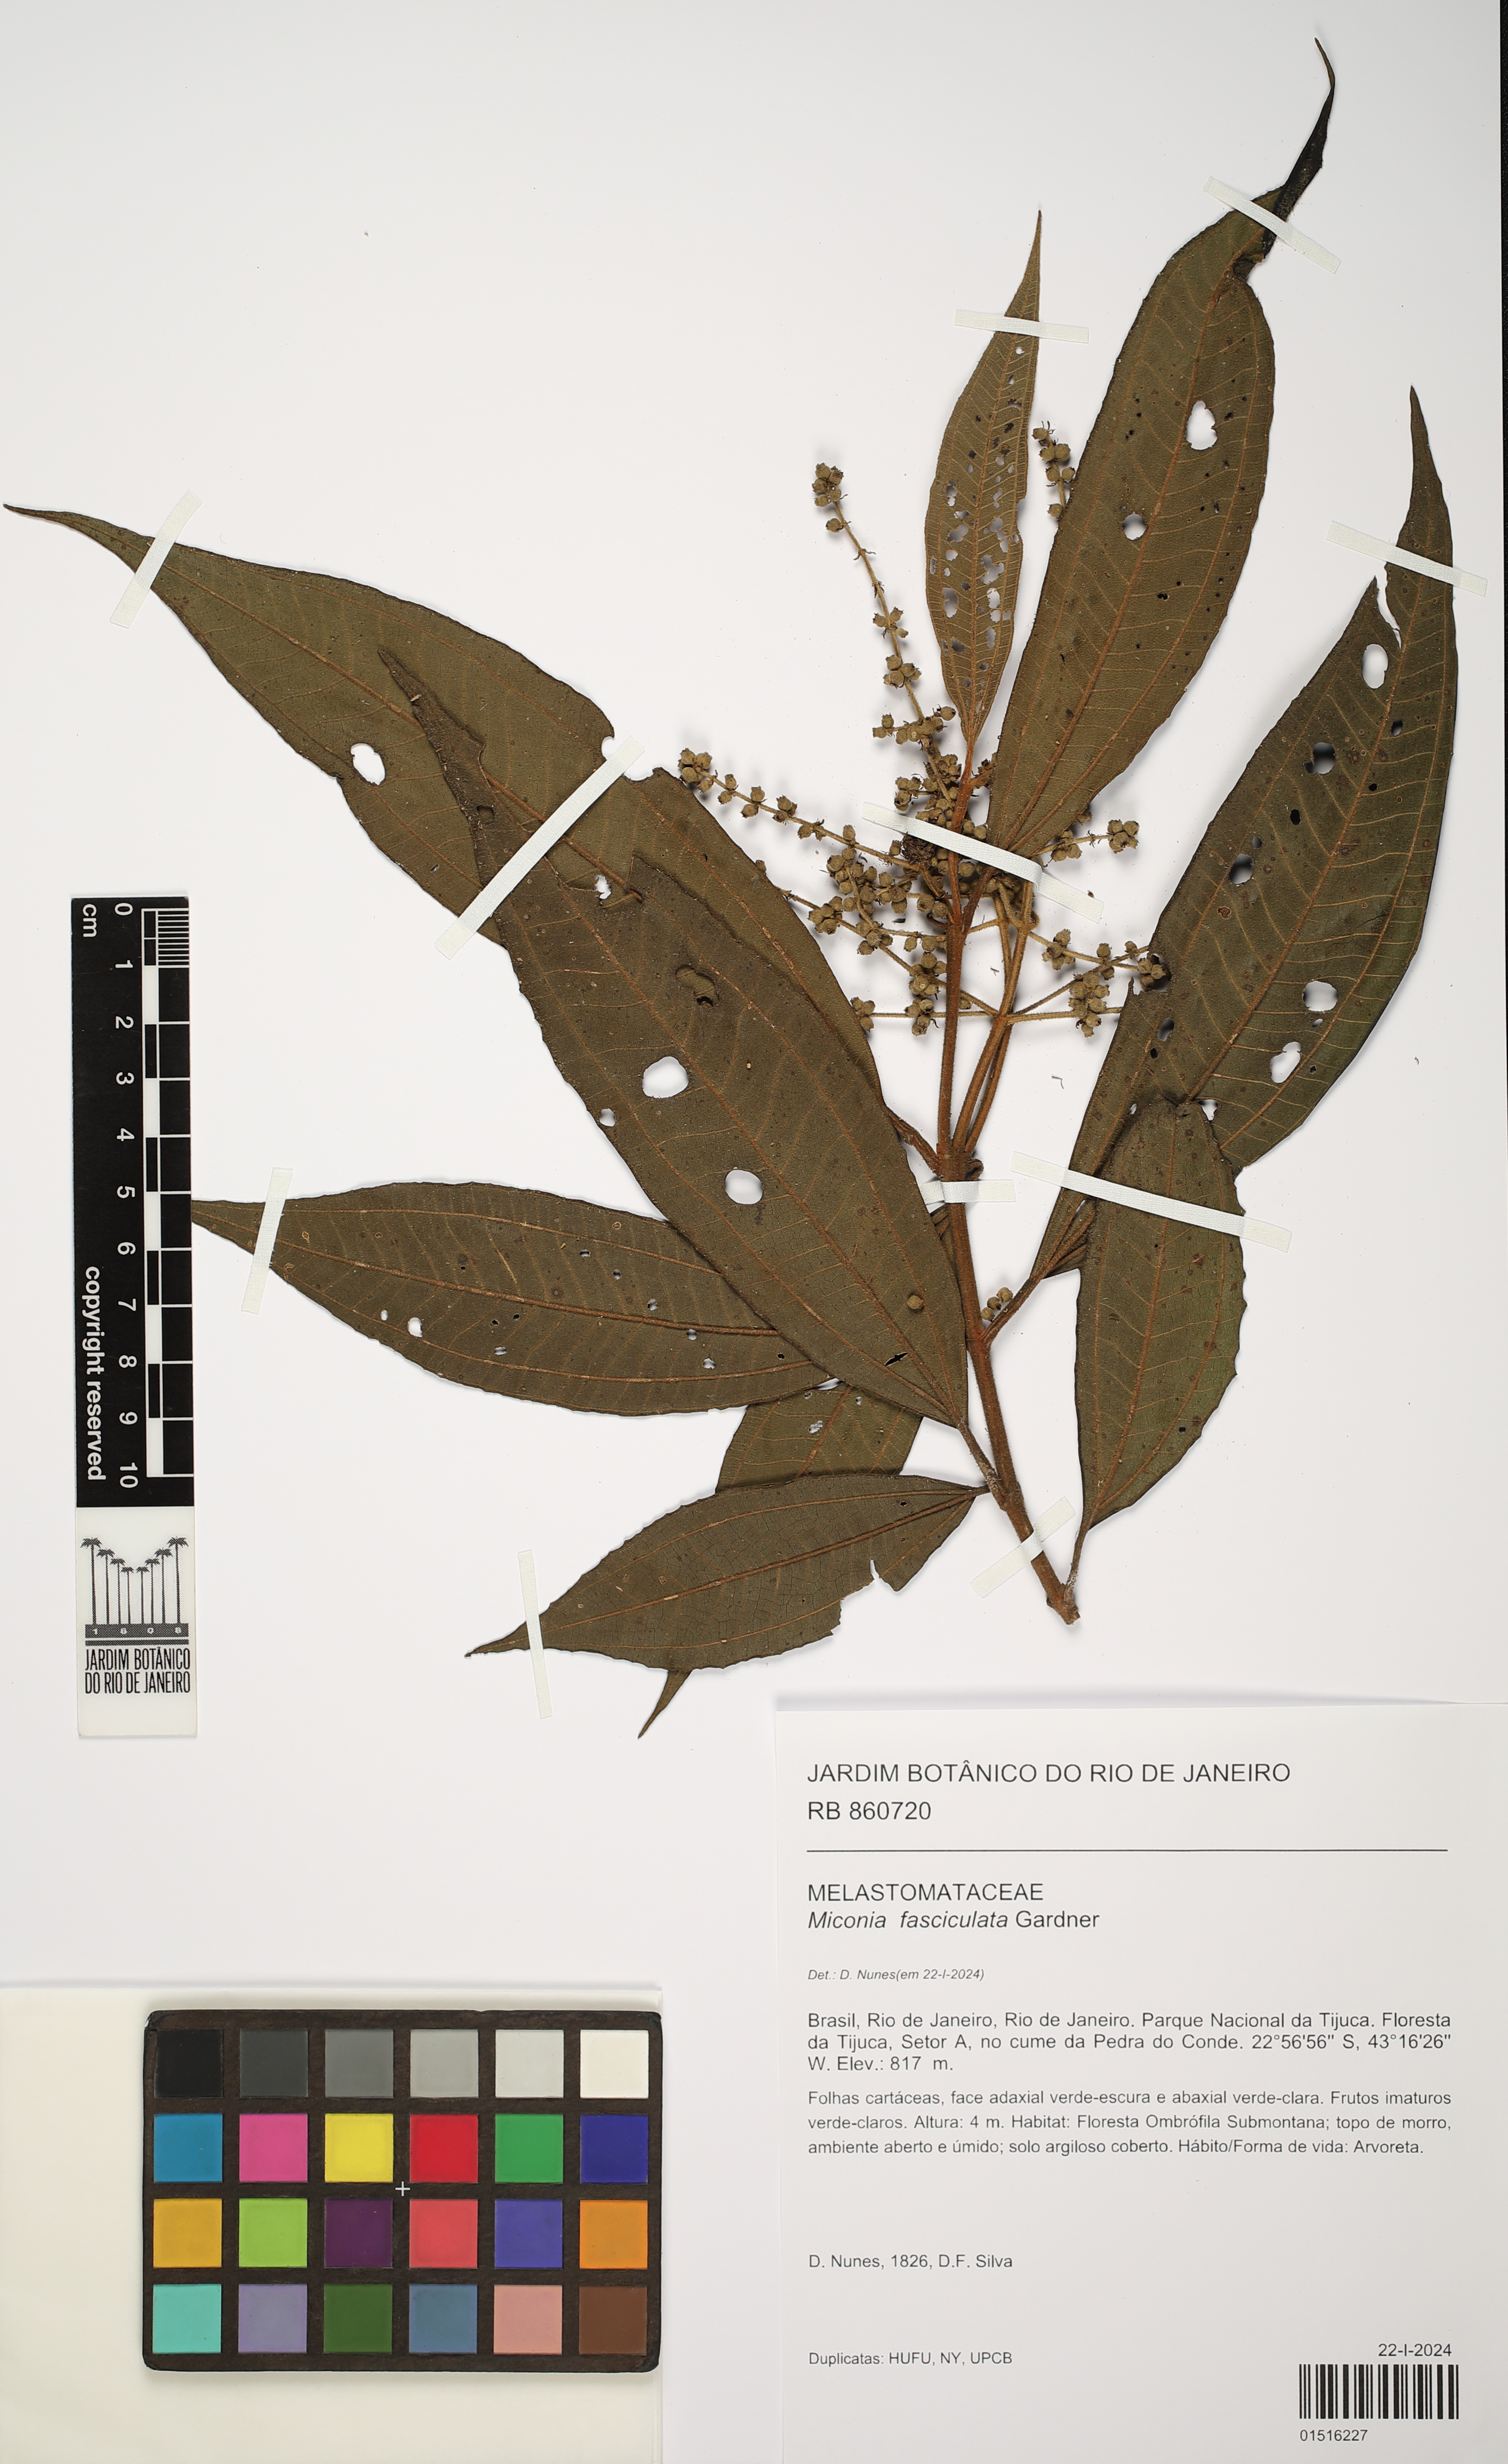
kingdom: Plantae
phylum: Tracheophyta
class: Magnoliopsida
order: Myrtales
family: Melastomataceae
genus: Miconia
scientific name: Miconia fasciculata
